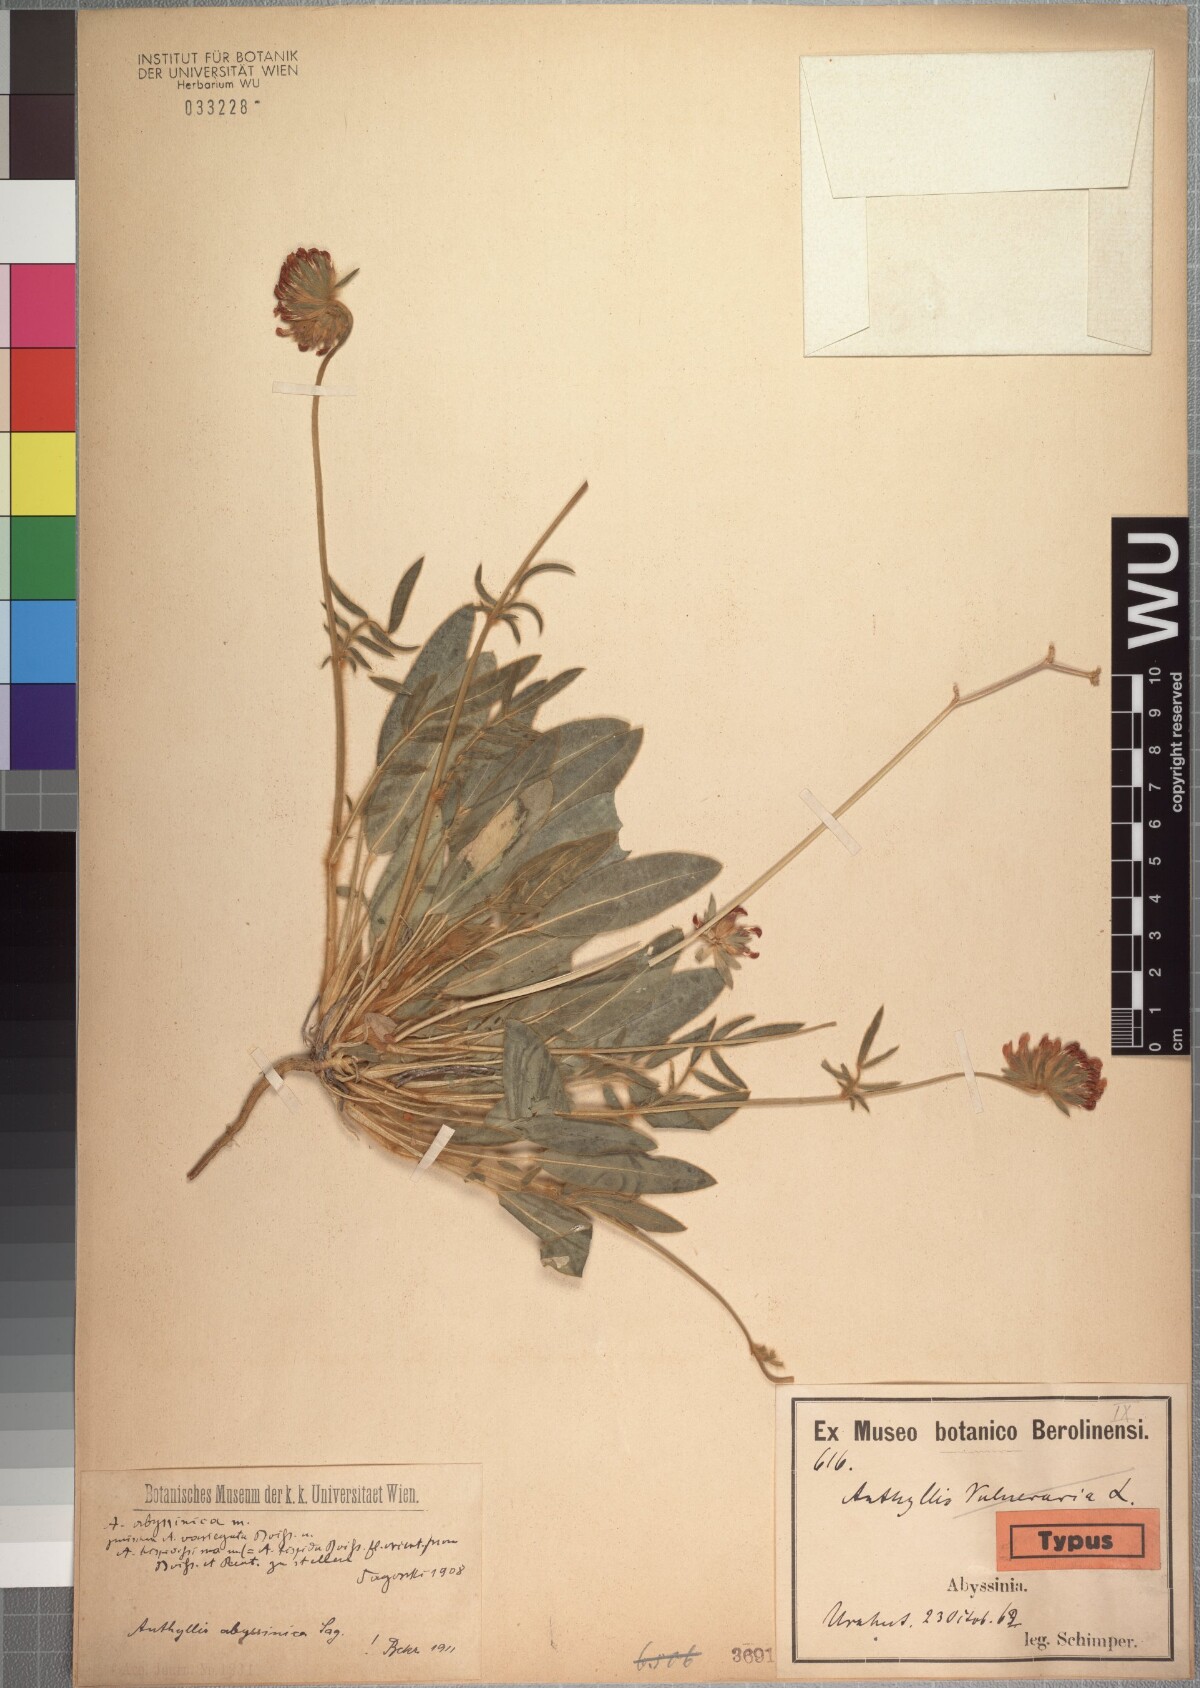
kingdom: Plantae
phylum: Tracheophyta
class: Magnoliopsida
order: Fabales
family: Fabaceae
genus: Anthyllis
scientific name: Anthyllis vulneraria
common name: Kidney vetch
